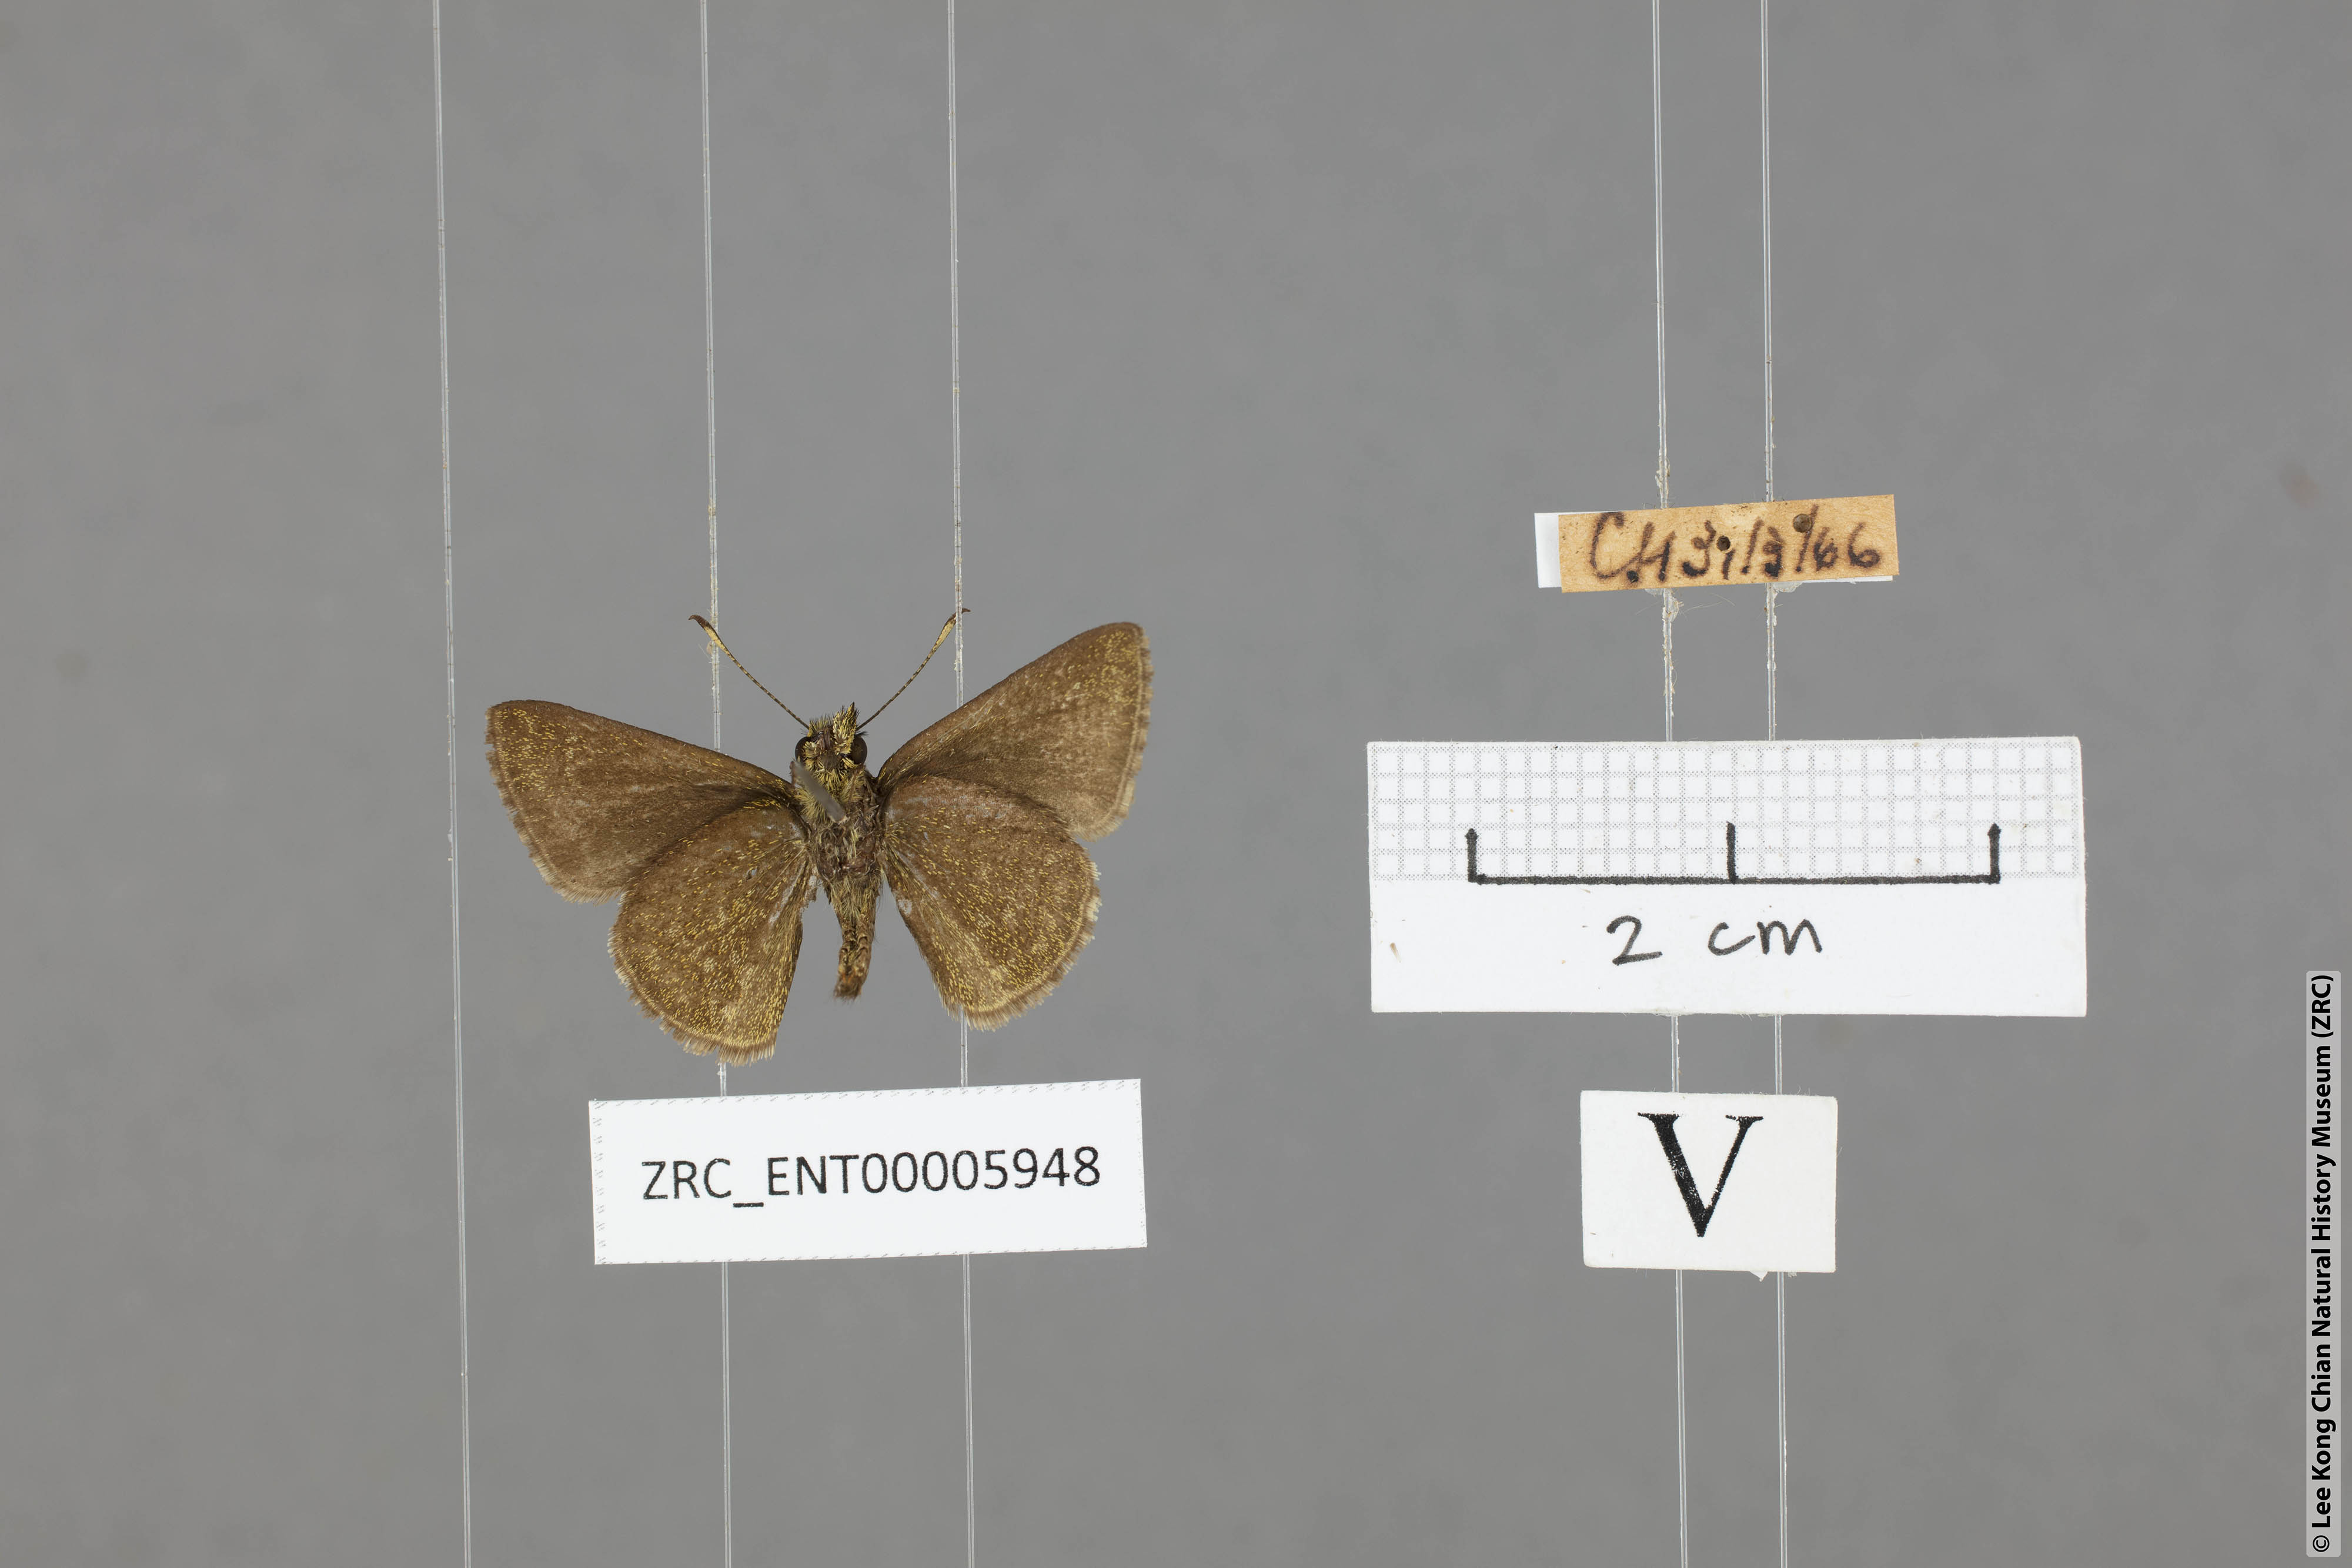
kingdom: Animalia
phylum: Arthropoda
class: Insecta
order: Lepidoptera
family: Hesperiidae
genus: Aeromachus
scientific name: Aeromachus jhora
